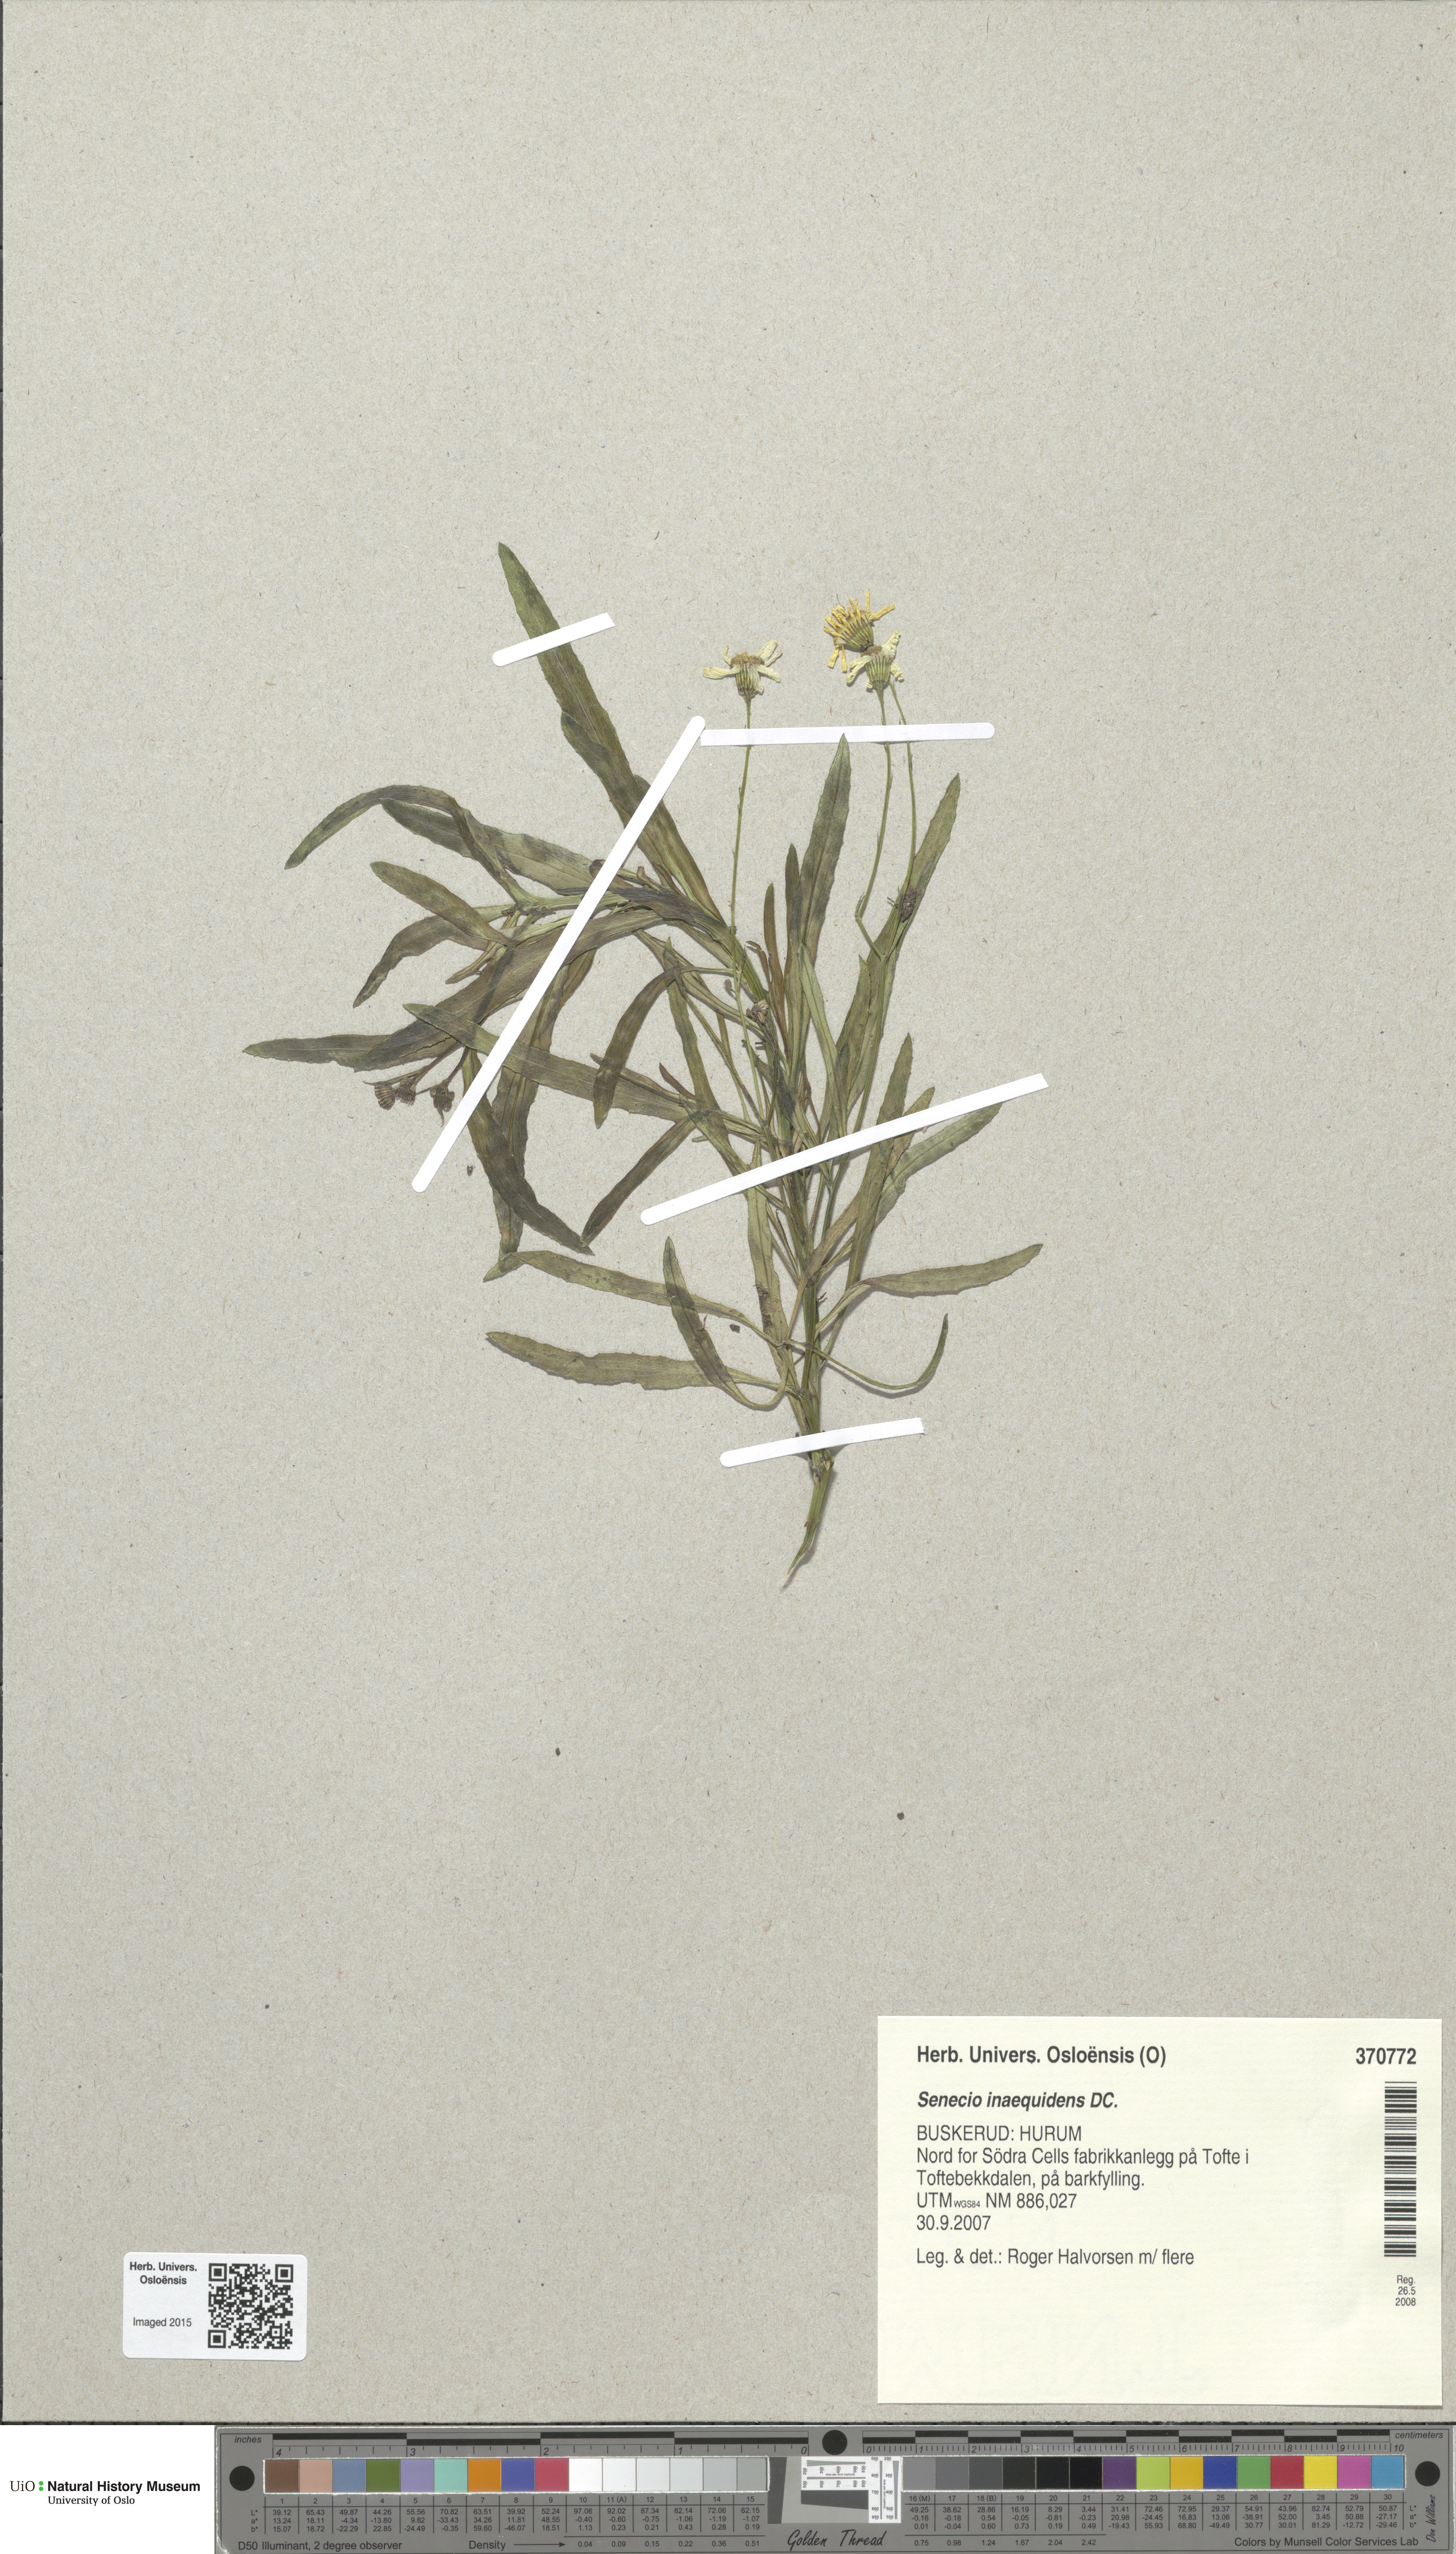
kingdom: Plantae
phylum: Tracheophyta
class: Magnoliopsida
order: Asterales
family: Asteraceae
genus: Senecio
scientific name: Senecio inaequidens
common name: Narrow-leaved ragwort
